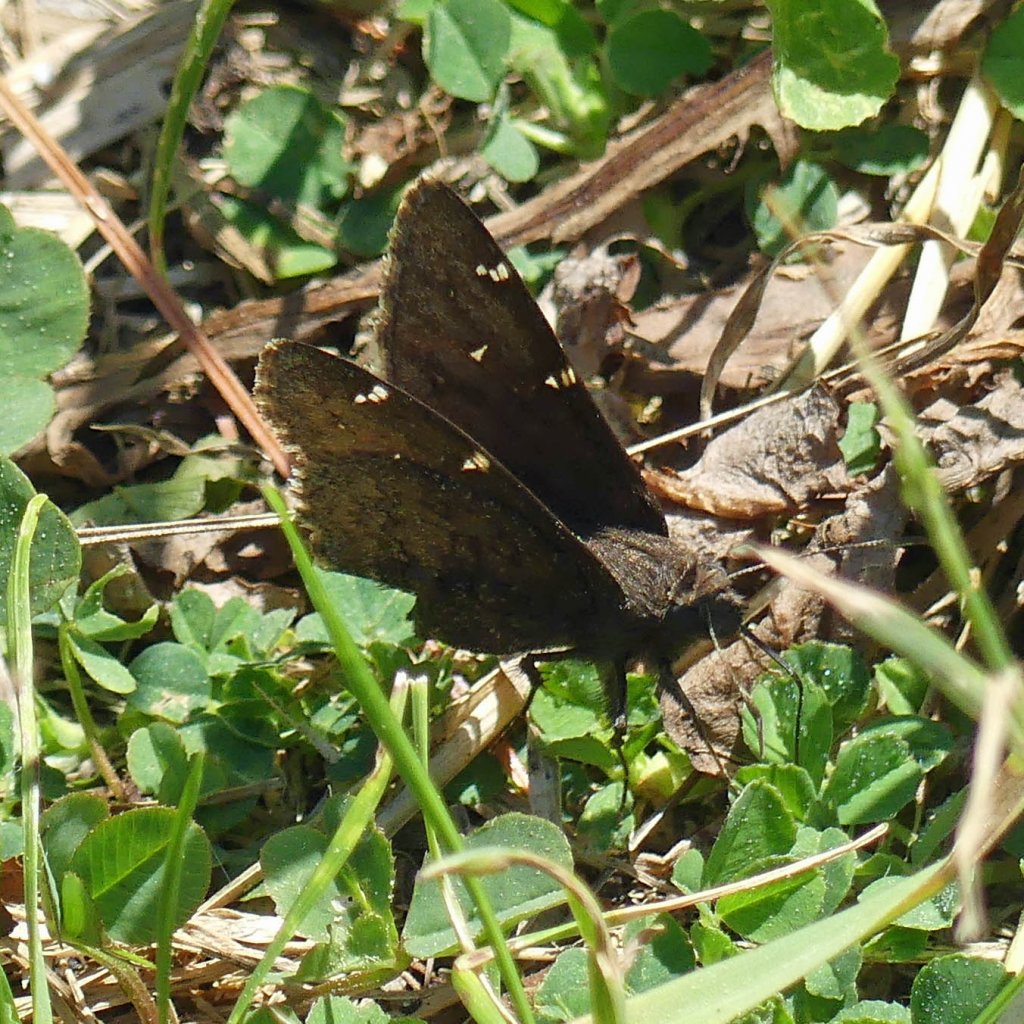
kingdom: Animalia
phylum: Arthropoda
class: Insecta
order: Lepidoptera
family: Hesperiidae
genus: Autochton
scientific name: Autochton
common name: Northern Cloudywing
